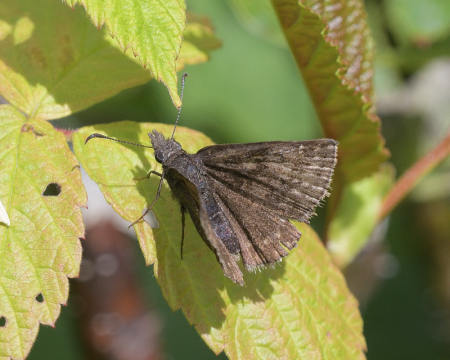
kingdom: Animalia
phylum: Arthropoda
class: Insecta
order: Lepidoptera
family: Hesperiidae
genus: Erynnis
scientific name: Erynnis icelus
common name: Dreamy Duskywing
